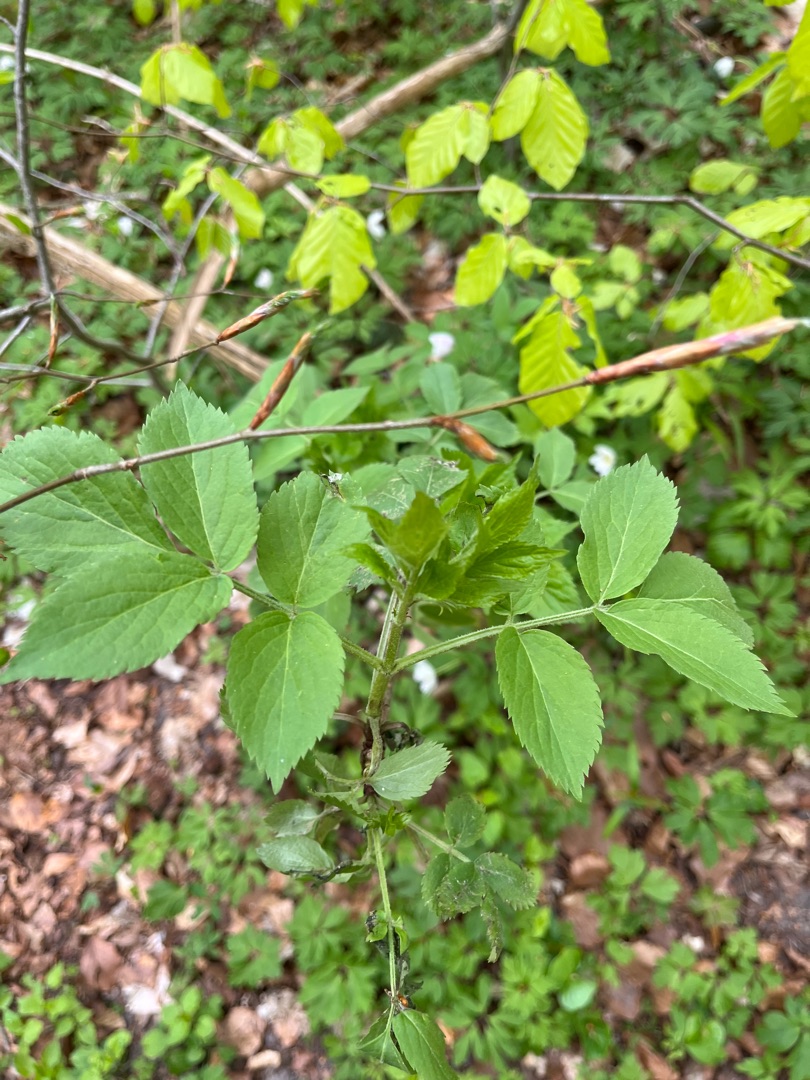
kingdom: Plantae
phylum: Tracheophyta
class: Magnoliopsida
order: Dipsacales
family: Viburnaceae
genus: Sambucus
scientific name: Sambucus nigra
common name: Almindelig hyld
